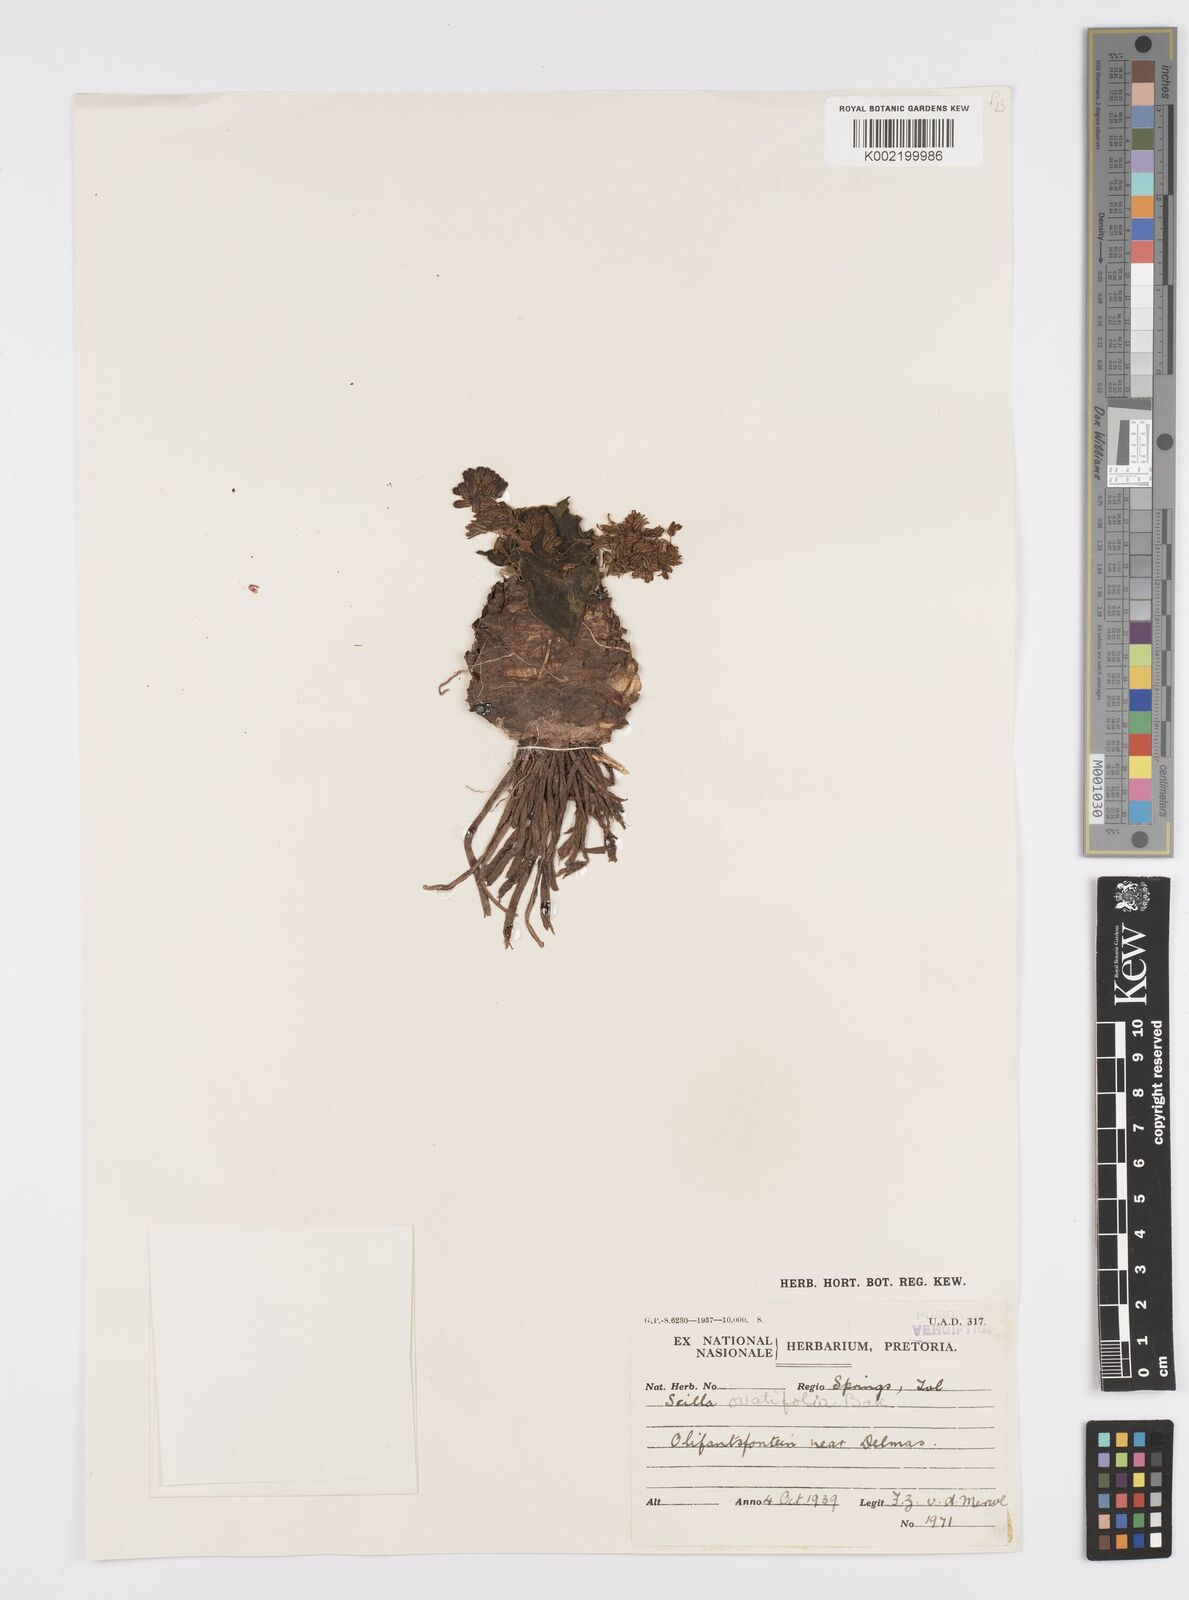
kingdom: Plantae
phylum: Tracheophyta
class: Liliopsida
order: Asparagales
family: Asparagaceae
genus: Ledebouria
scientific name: Ledebouria ovatifolia
